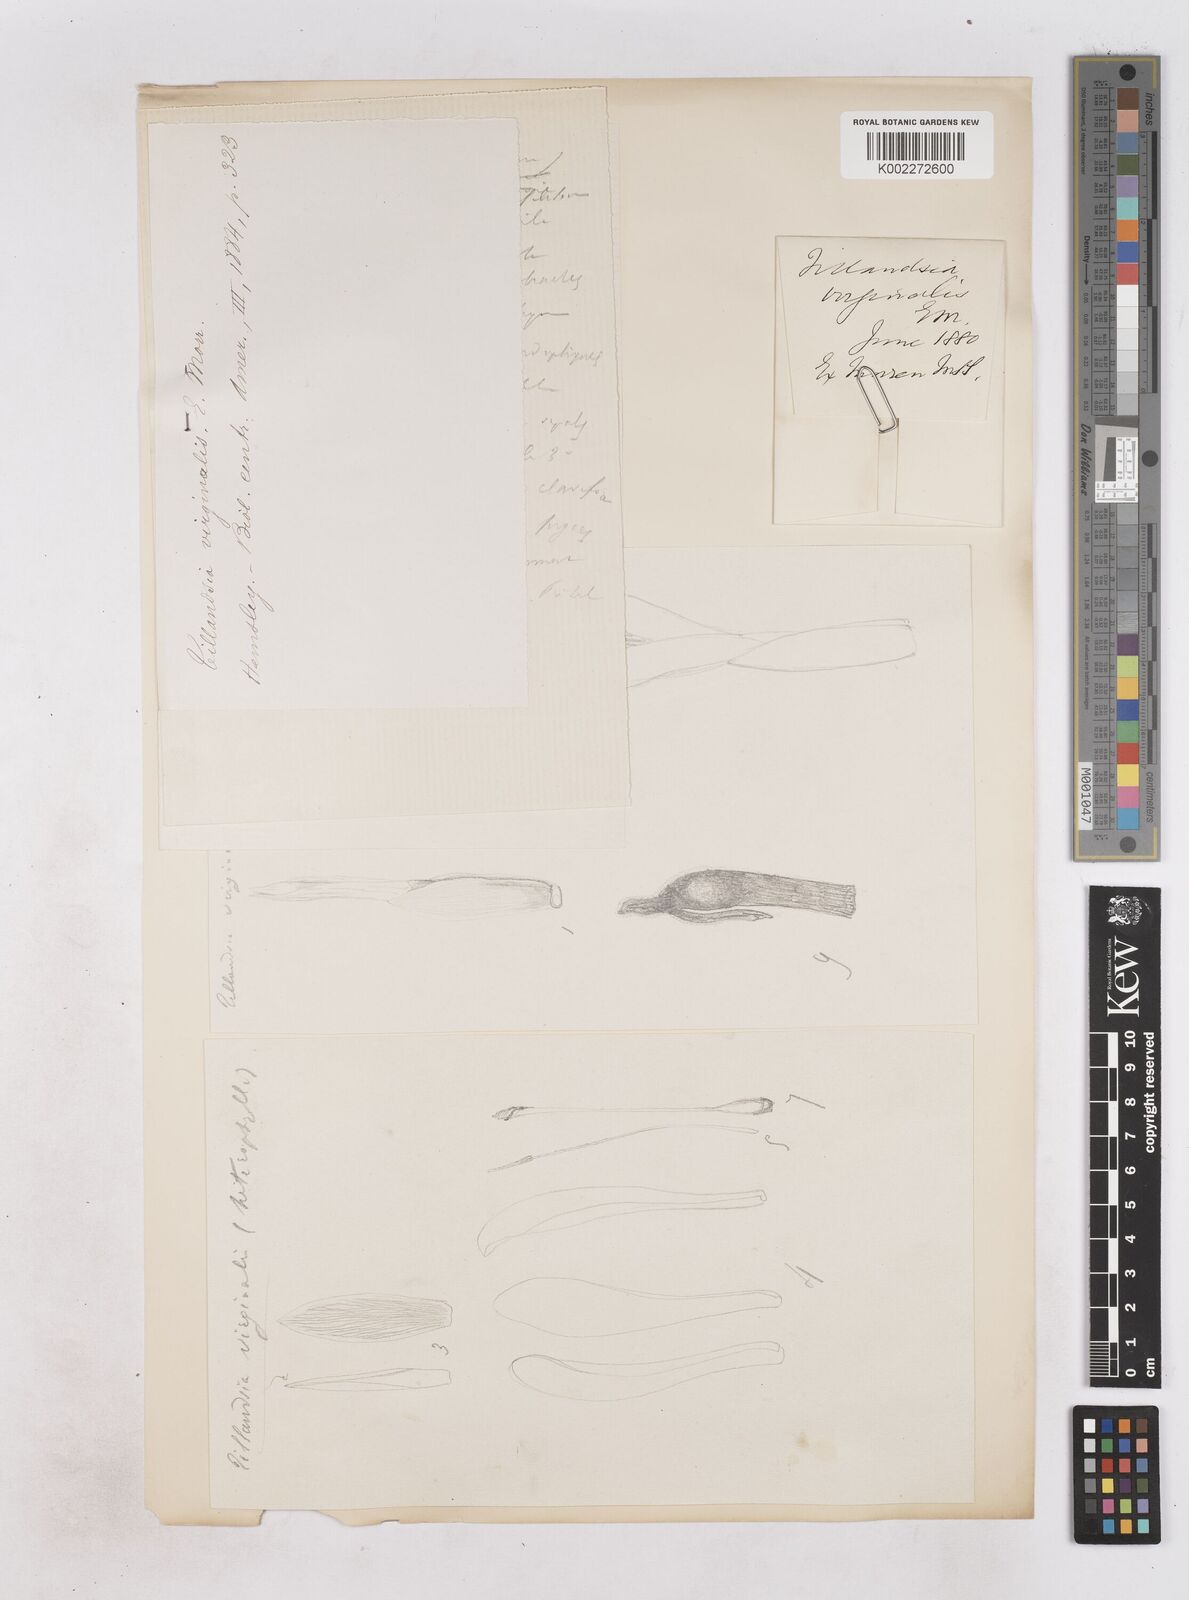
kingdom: Plantae
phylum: Tracheophyta
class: Liliopsida
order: Poales
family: Bromeliaceae
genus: Tillandsia
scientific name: Tillandsia heterophylla
